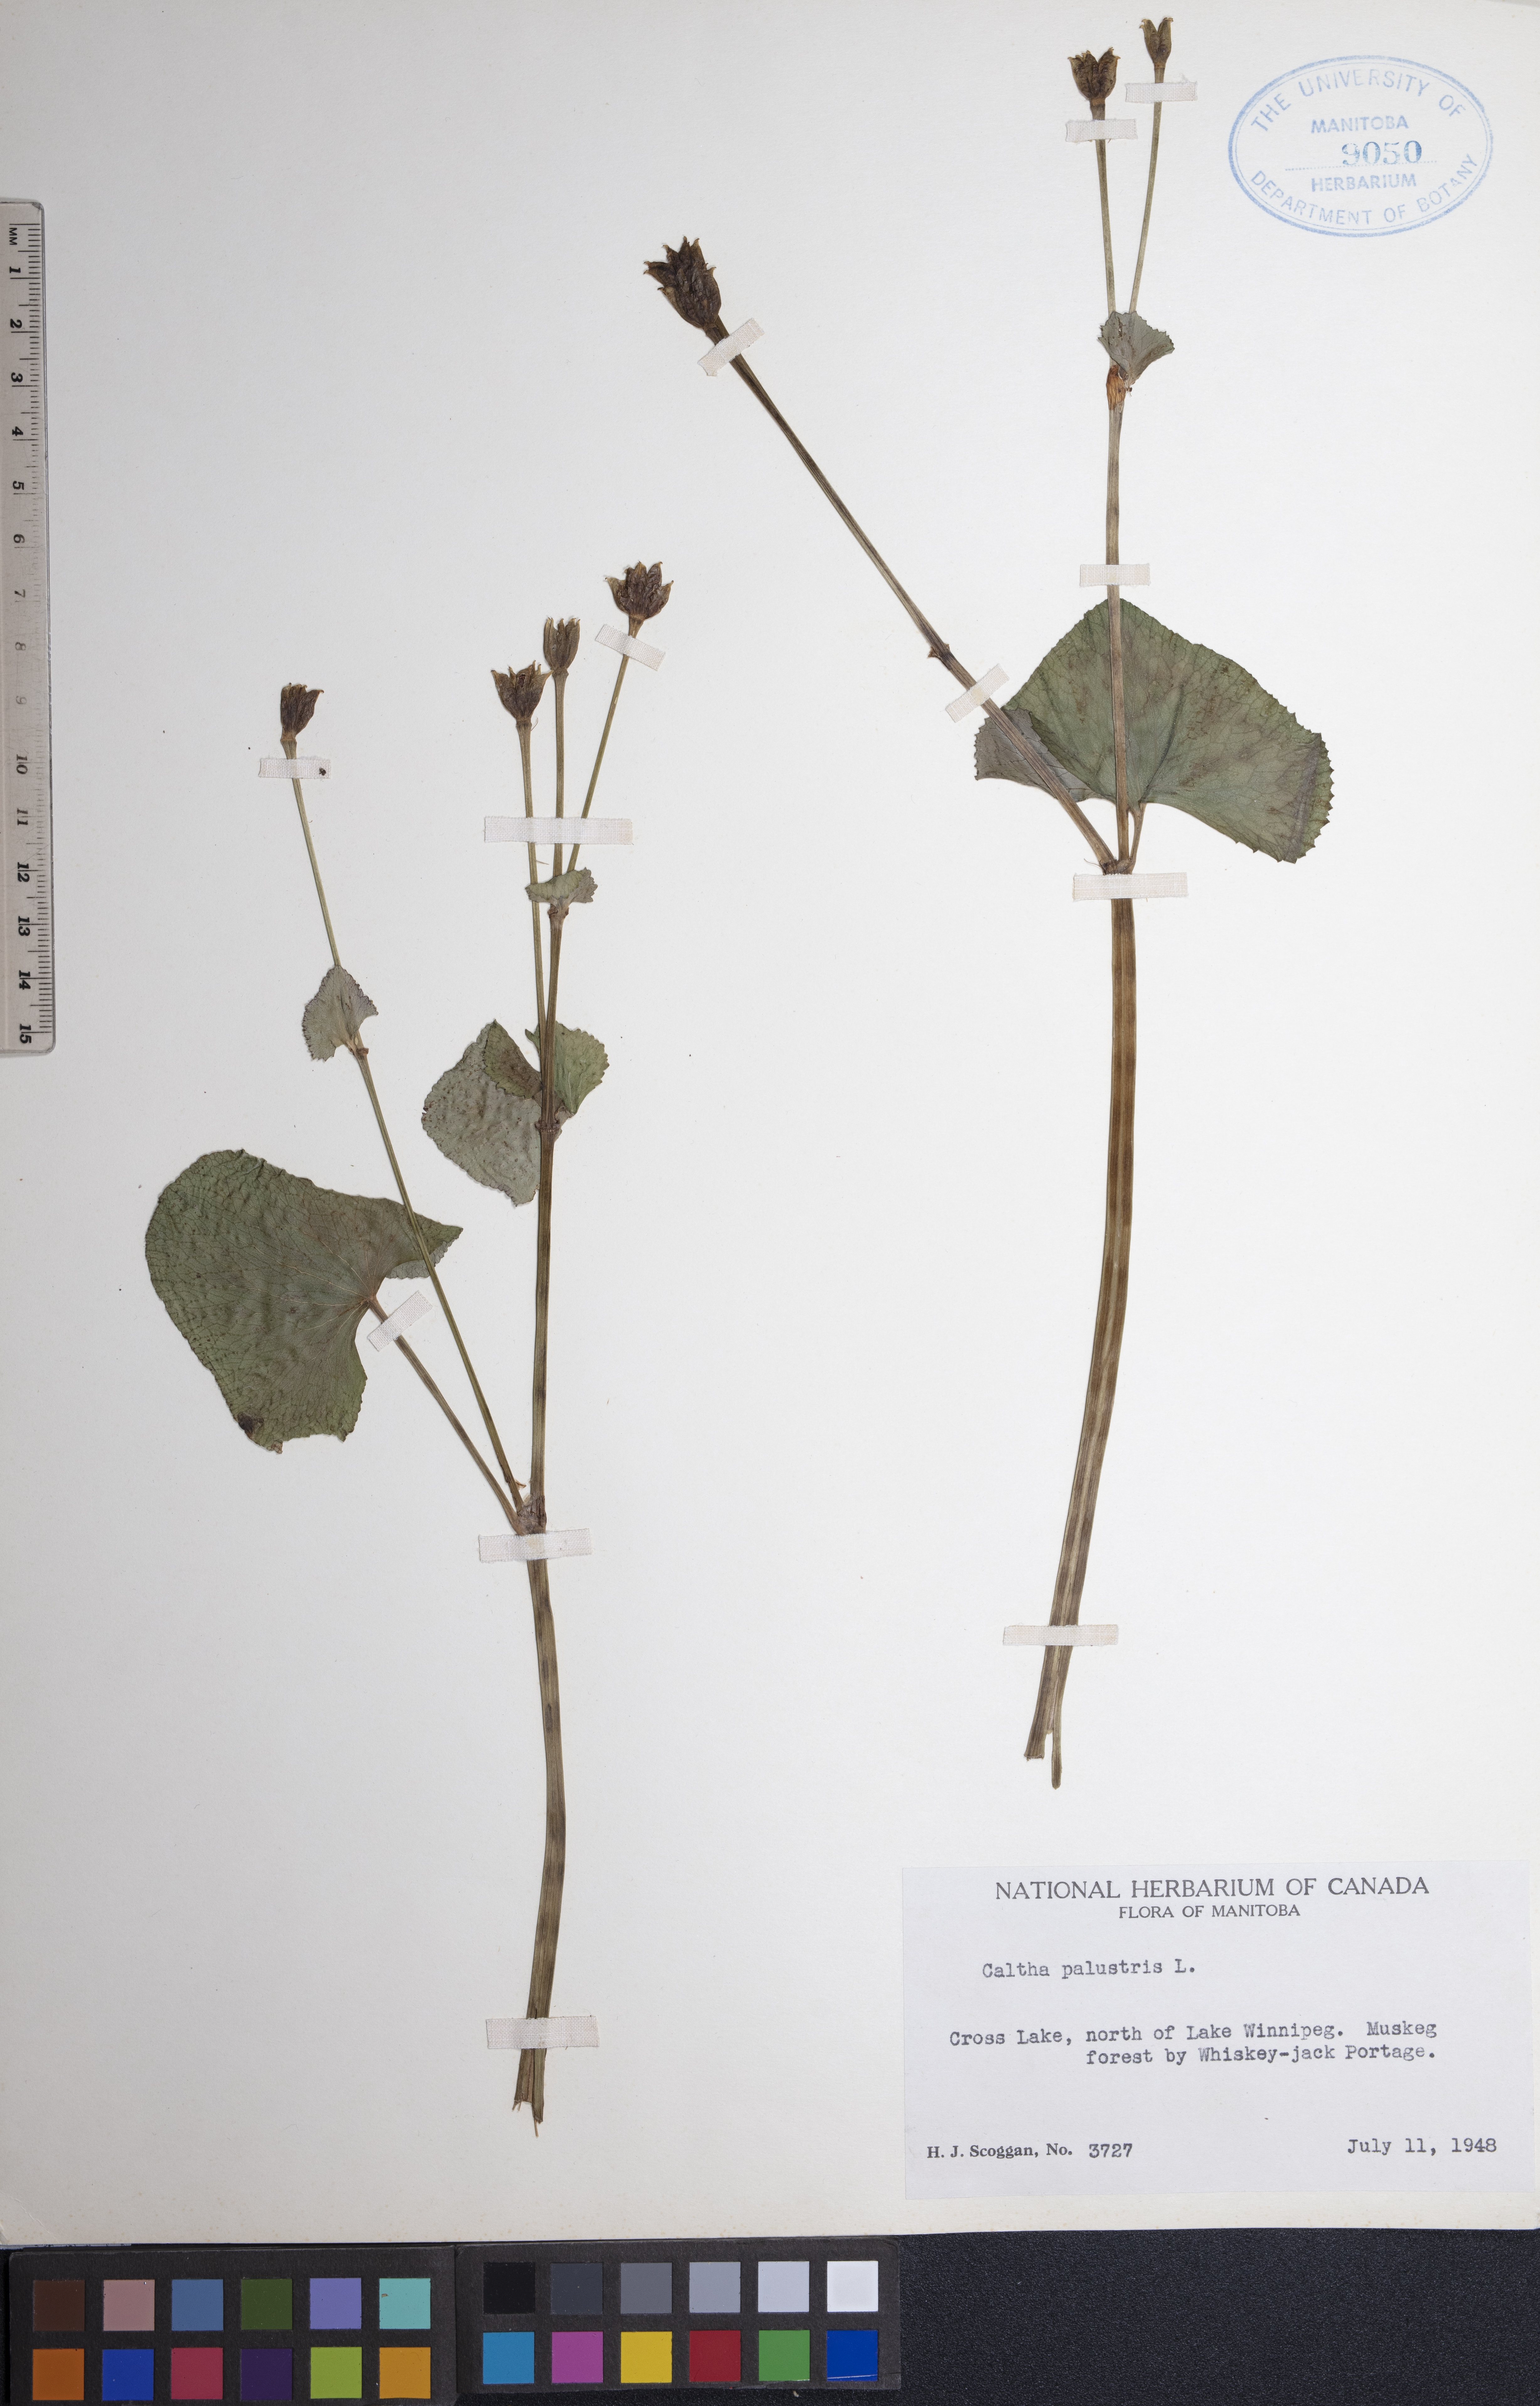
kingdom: Plantae
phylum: Tracheophyta
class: Magnoliopsida
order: Ranunculales
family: Ranunculaceae
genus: Caltha
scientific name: Caltha palustris
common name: Marsh marigold
